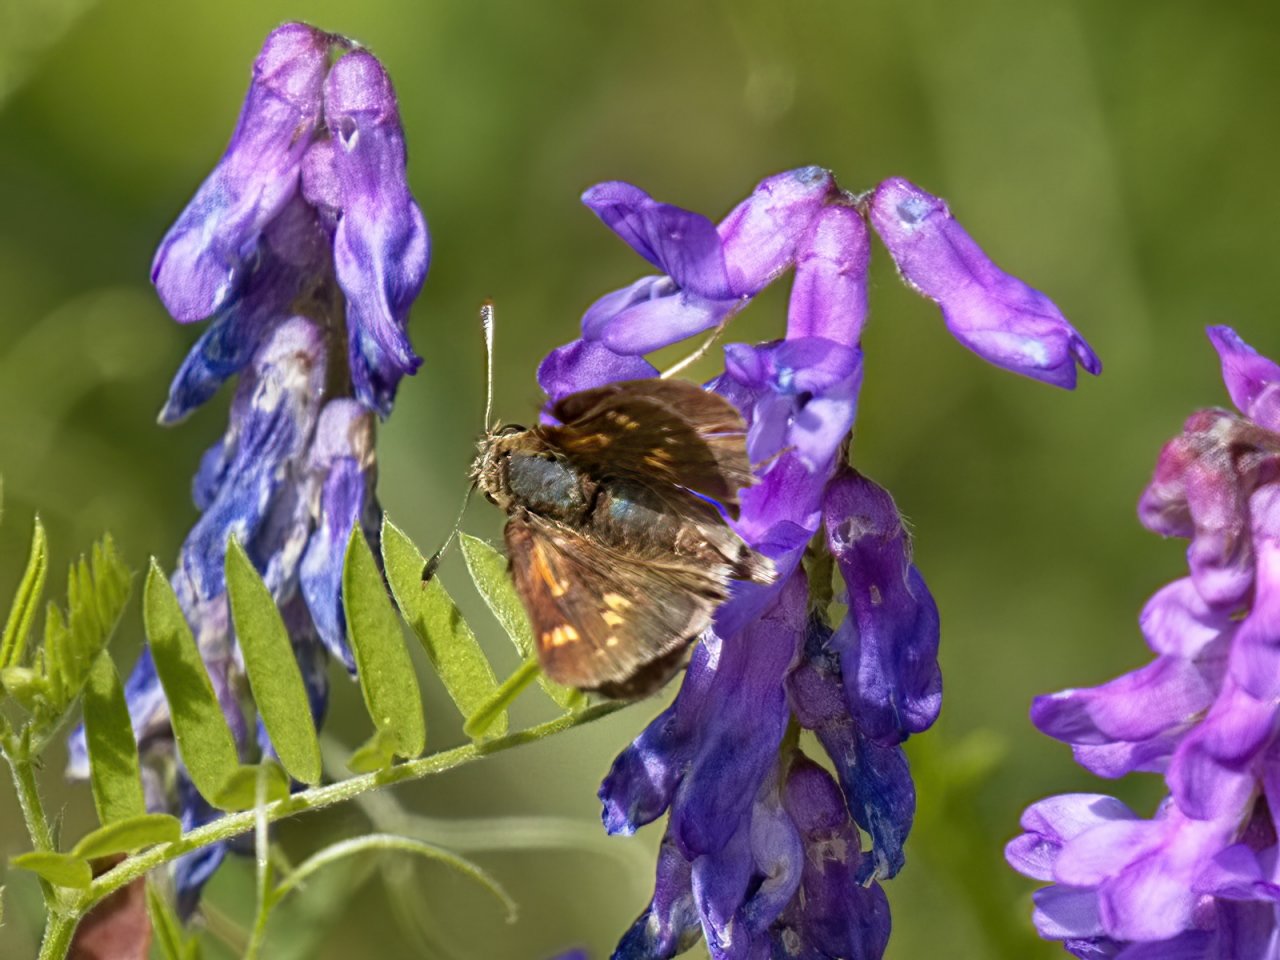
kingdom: Animalia
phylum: Arthropoda
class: Insecta
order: Lepidoptera
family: Hesperiidae
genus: Polites
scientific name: Polites coras
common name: Peck's Skipper
